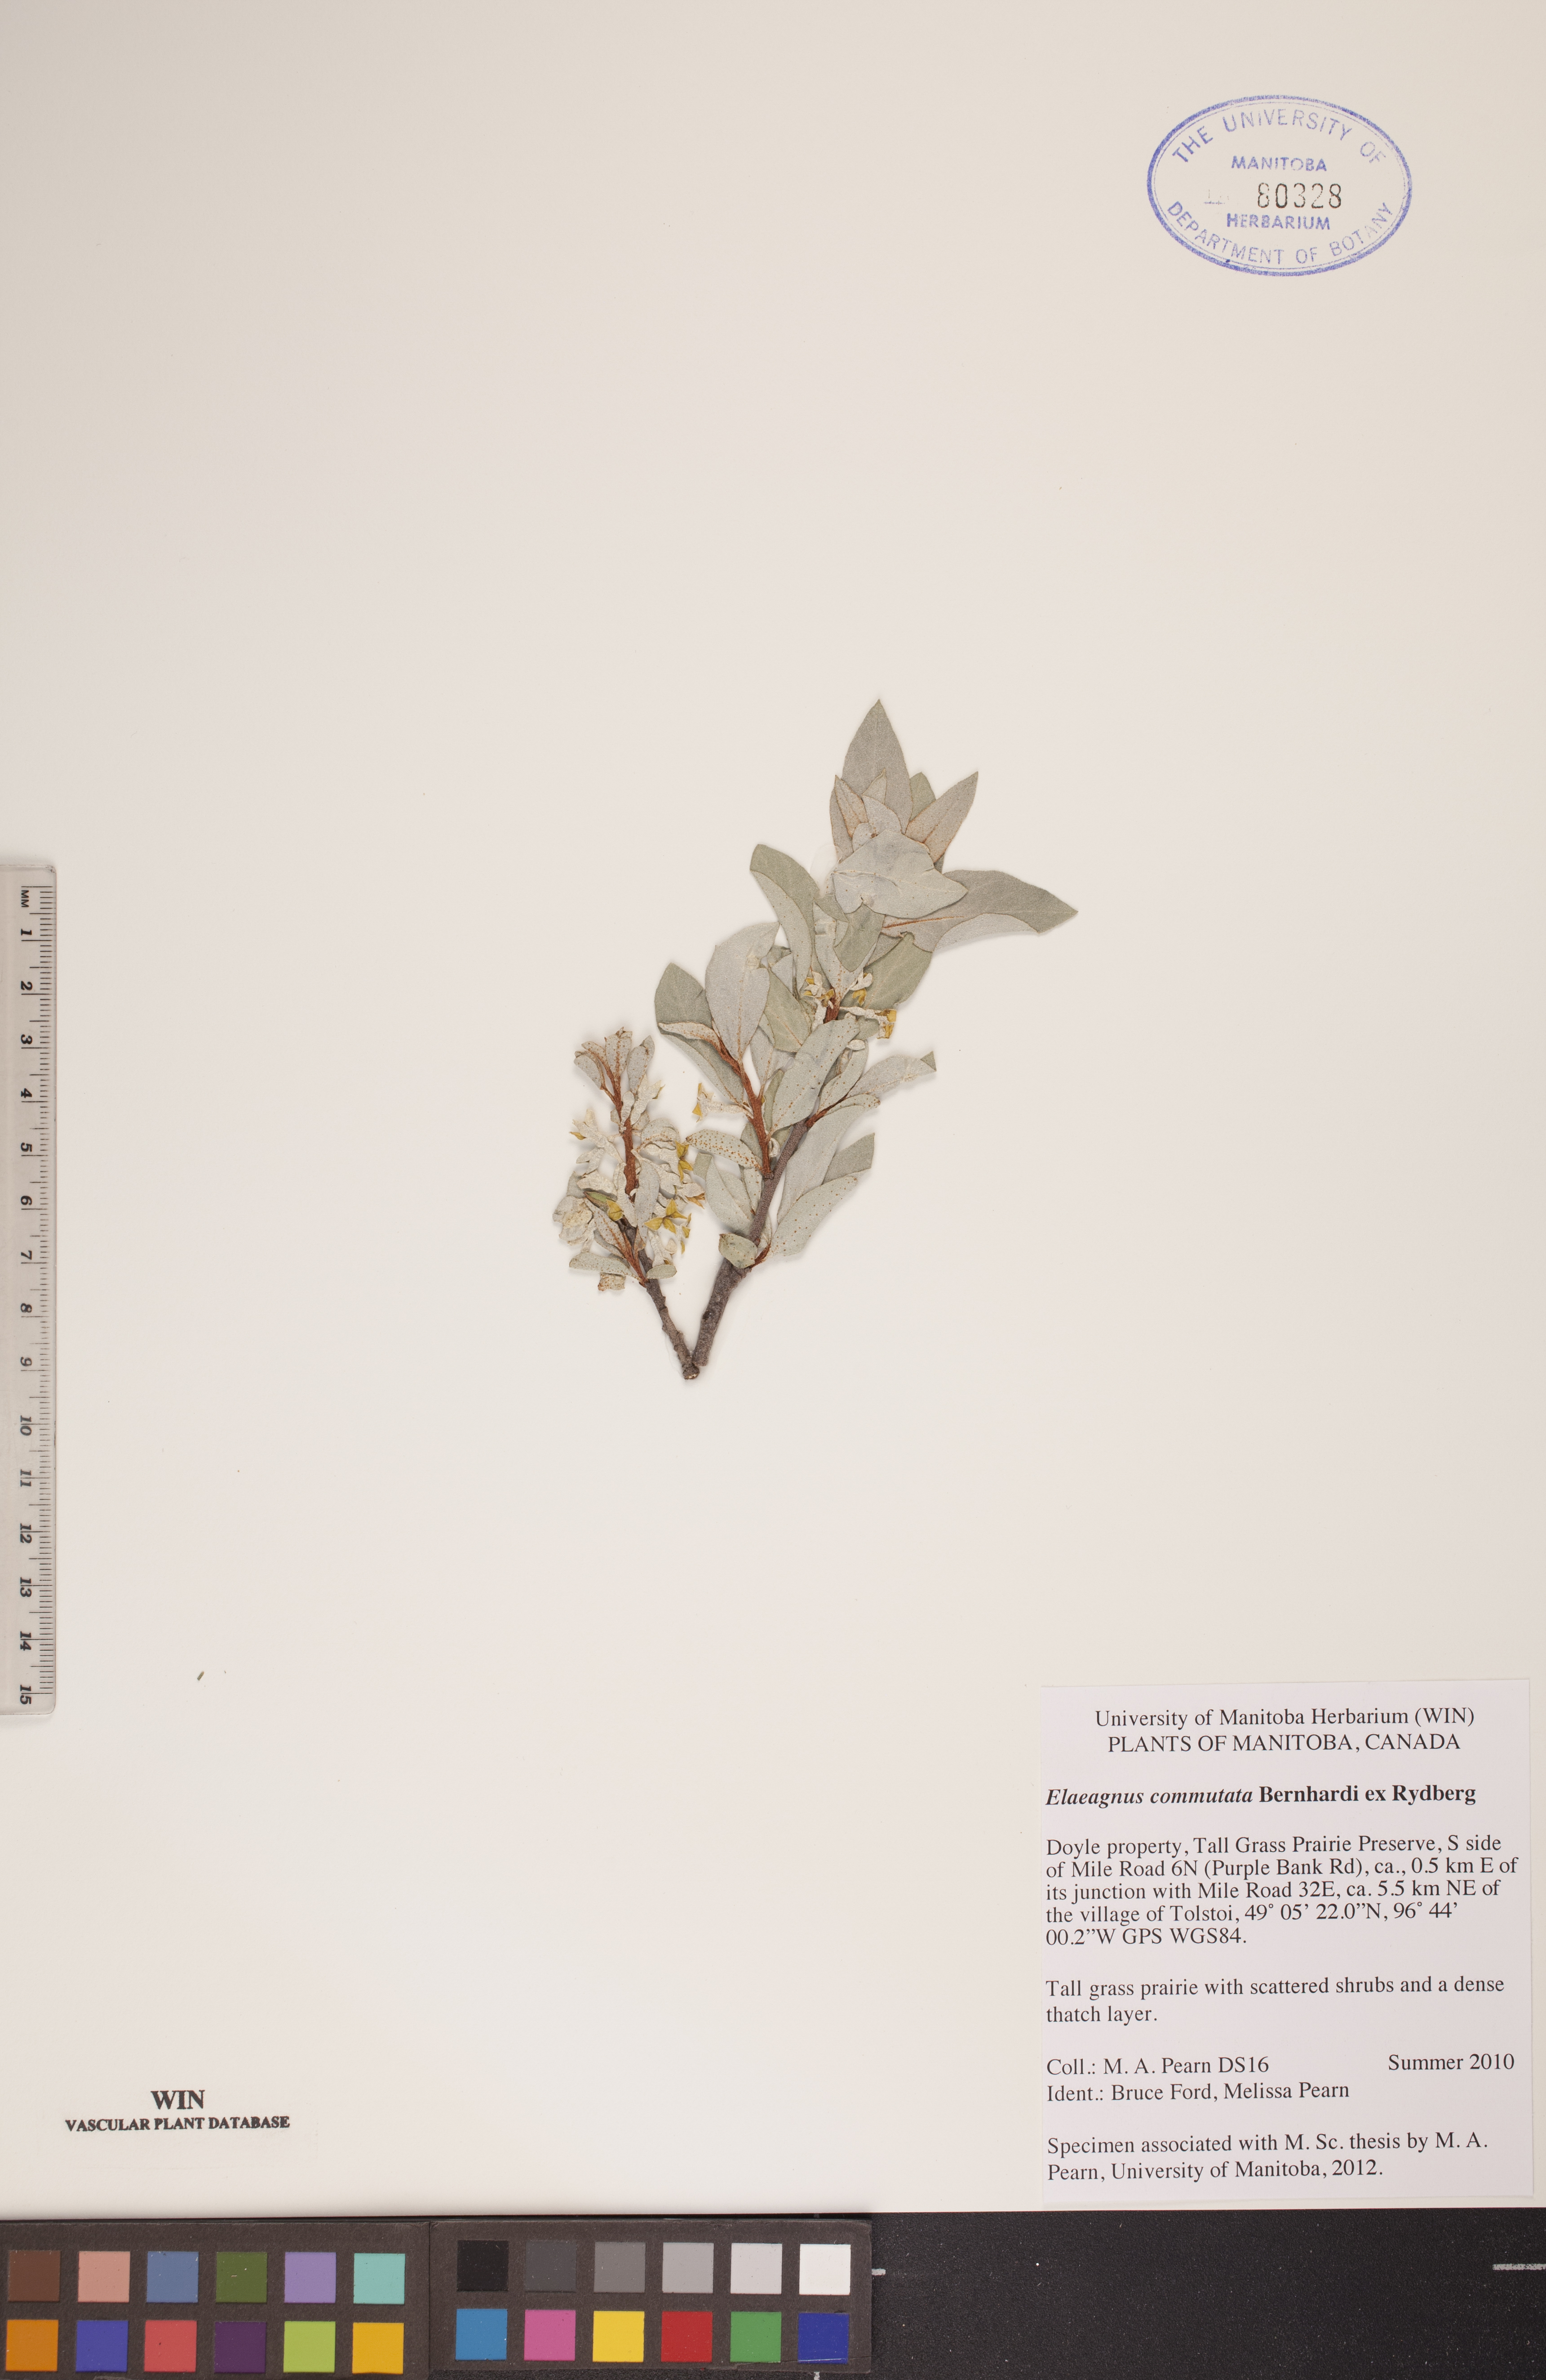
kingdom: Plantae
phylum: Tracheophyta
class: Magnoliopsida
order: Rosales
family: Elaeagnaceae
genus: Elaeagnus
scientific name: Elaeagnus commutata
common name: Silverberry
